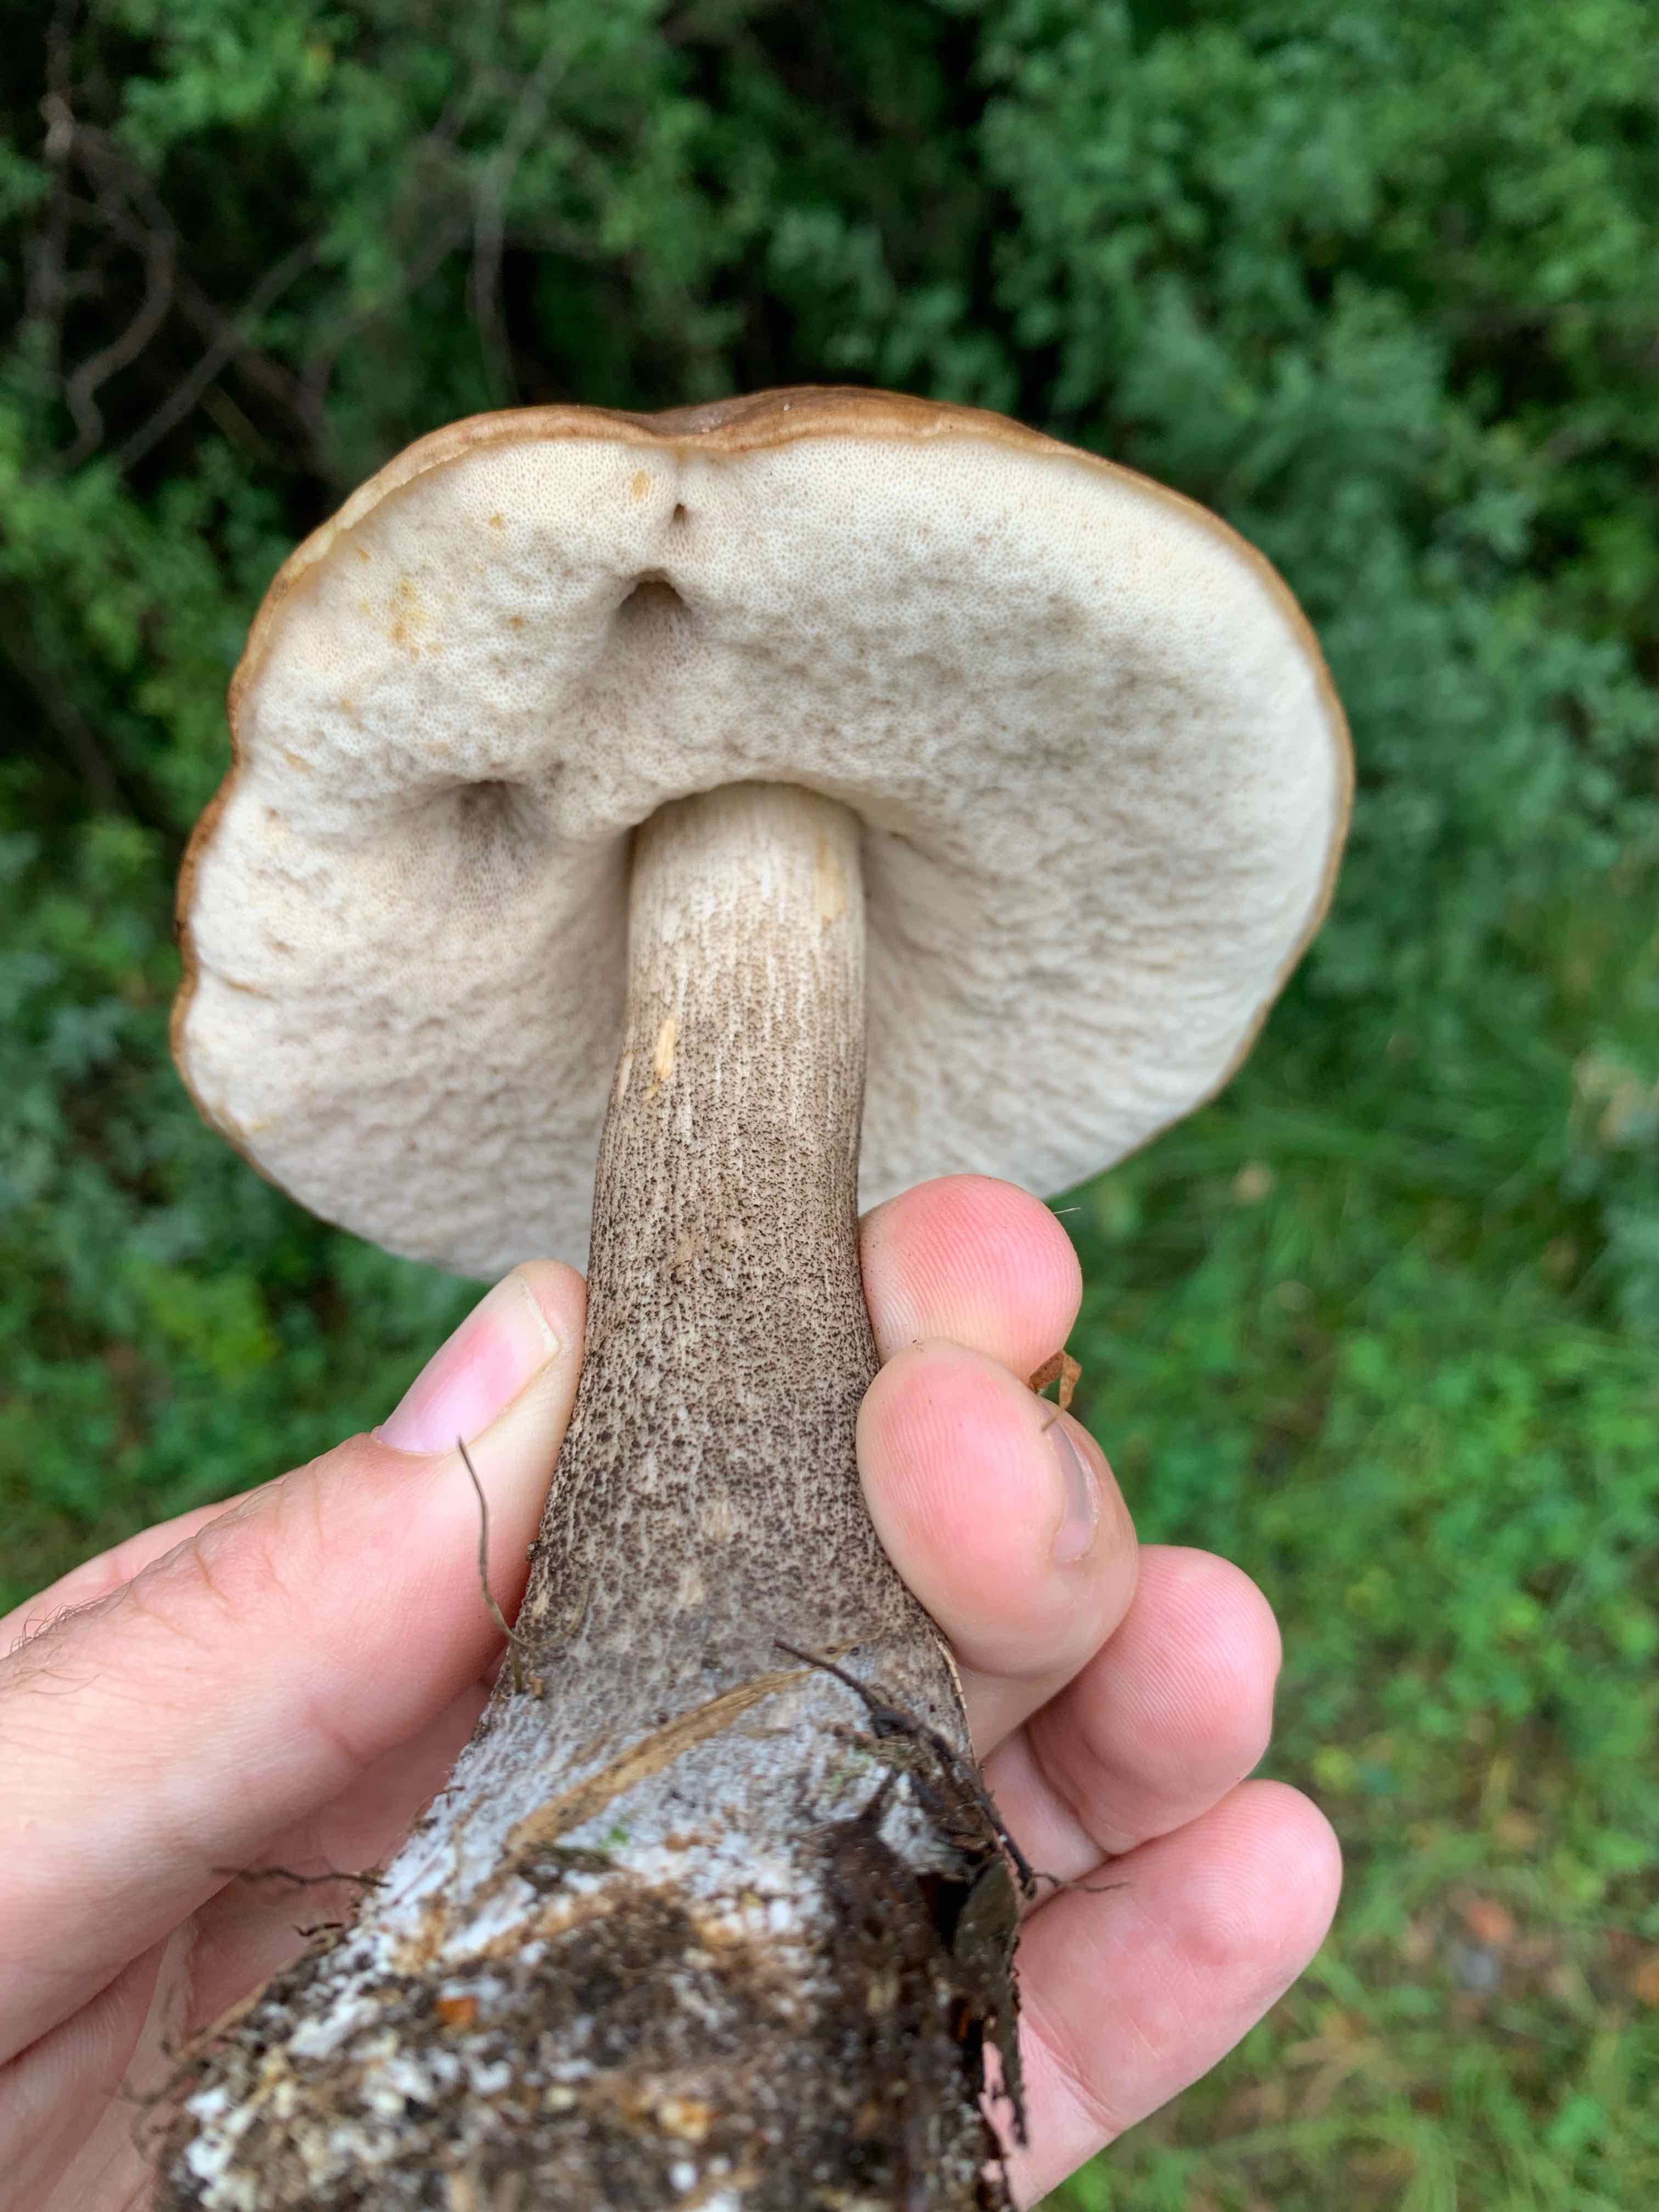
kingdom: Fungi
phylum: Basidiomycota
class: Agaricomycetes
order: Boletales
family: Boletaceae
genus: Leccinum
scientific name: Leccinum scabrum
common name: brun skælrørhat
